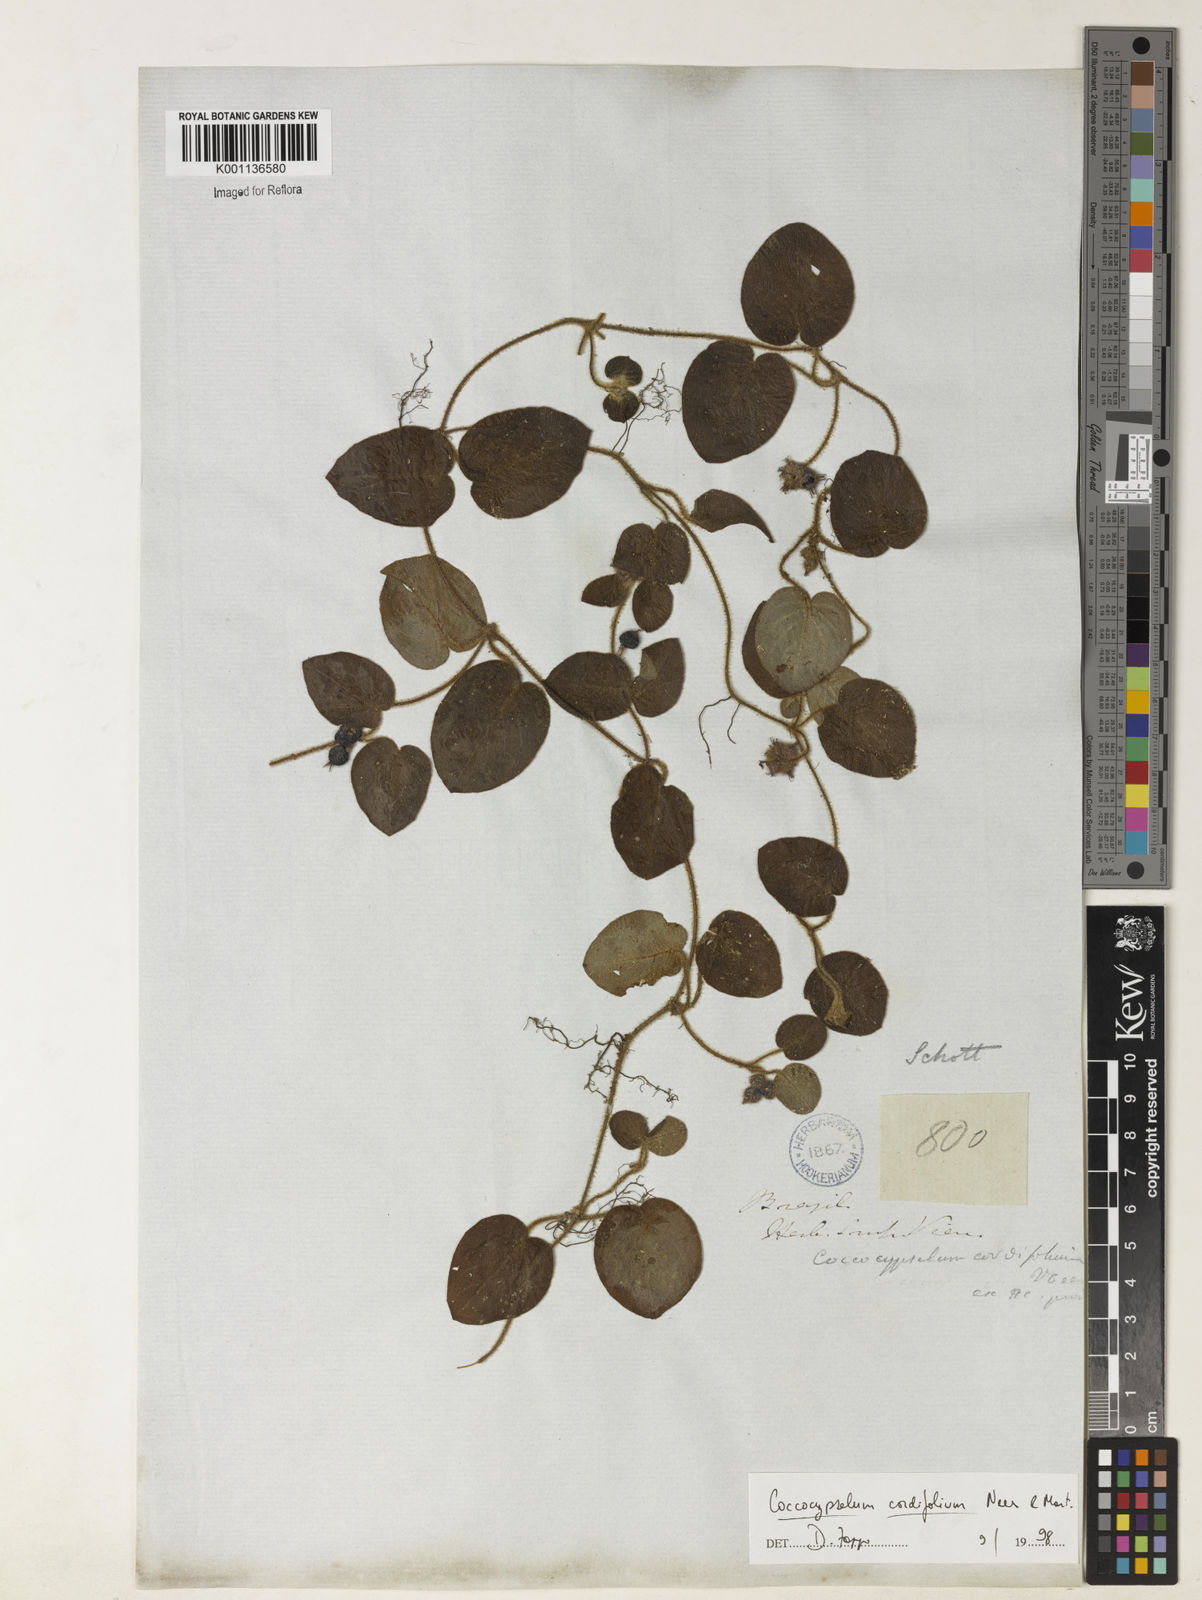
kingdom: Plantae
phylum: Tracheophyta
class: Magnoliopsida
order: Gentianales
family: Rubiaceae
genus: Coccocypselum
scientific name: Coccocypselum cordifolium
